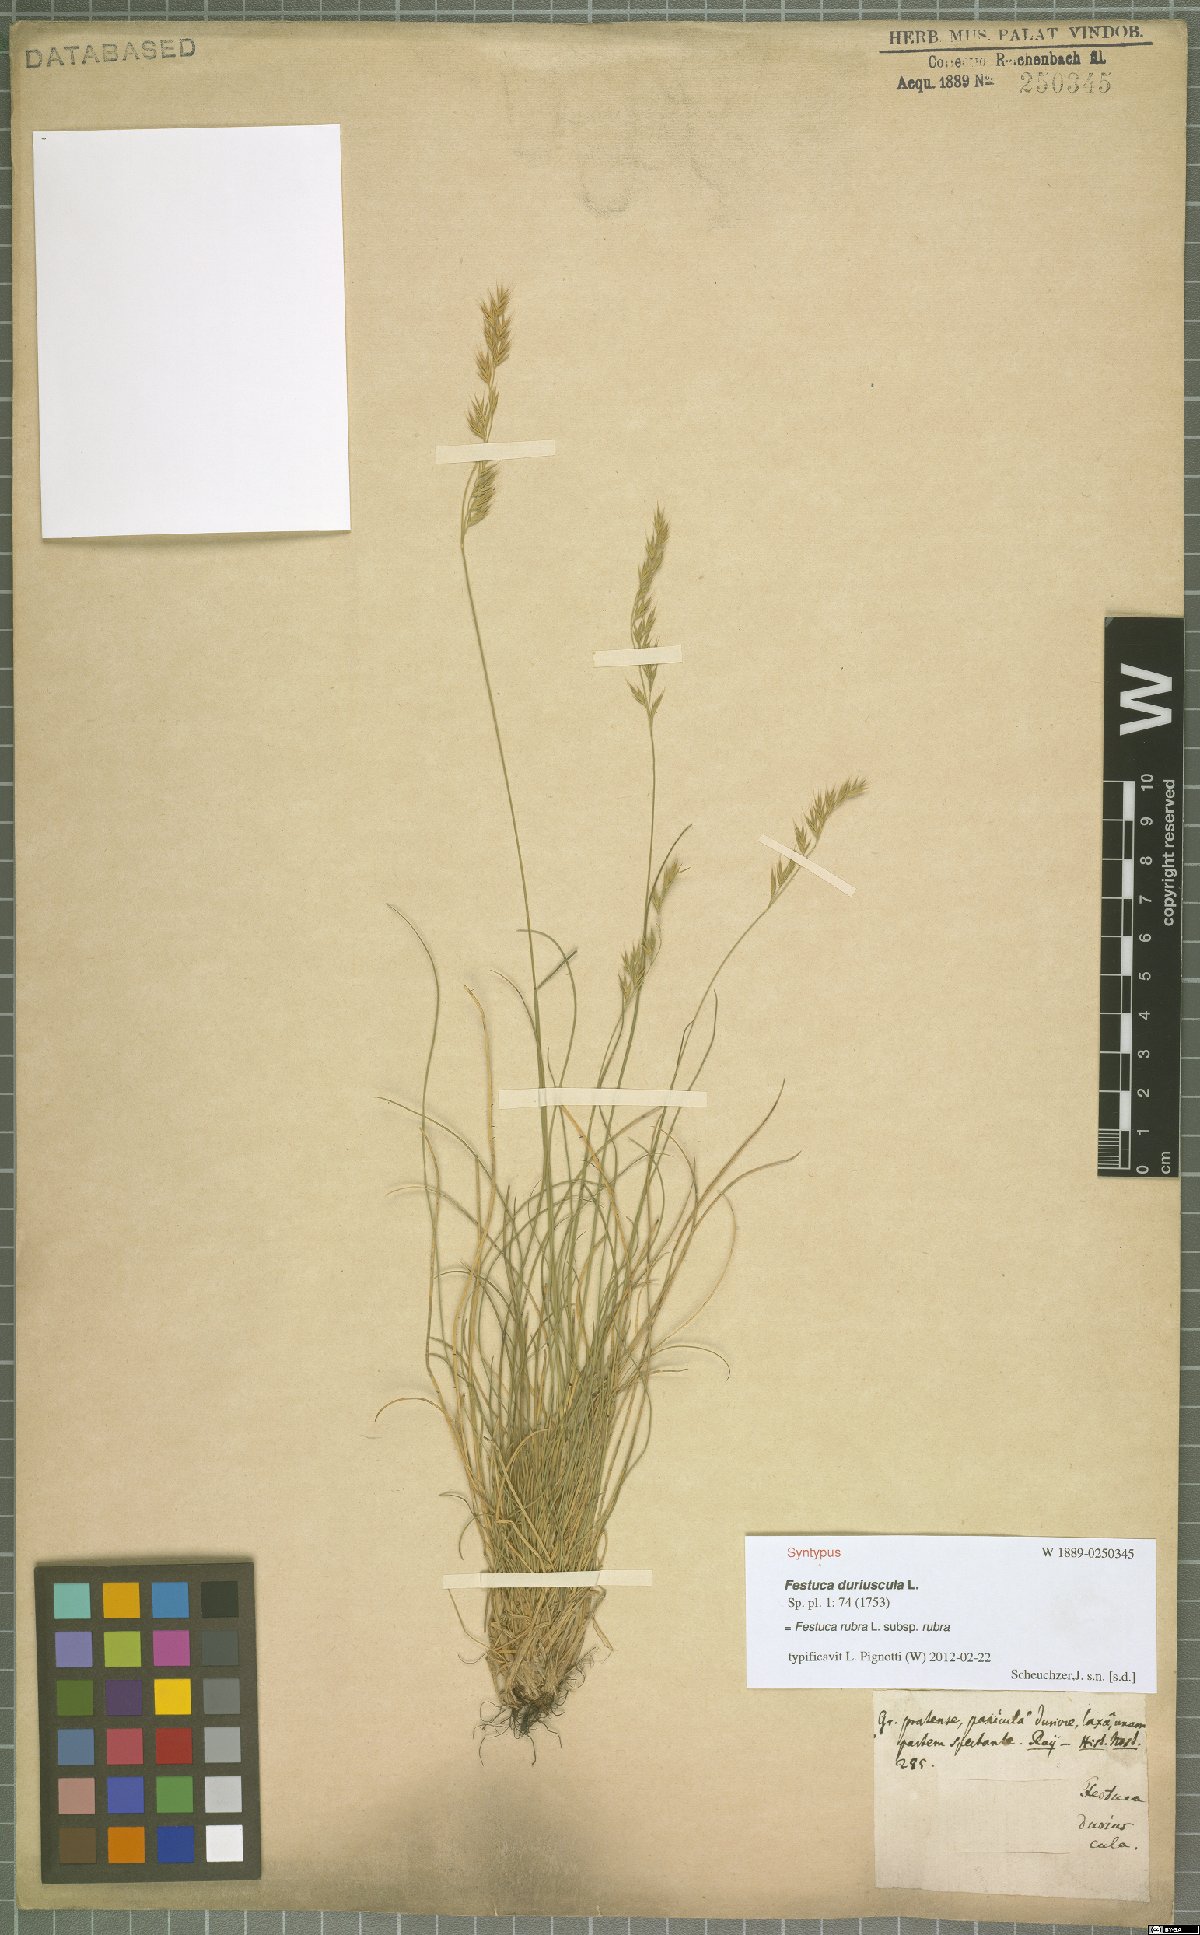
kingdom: Plantae
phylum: Tracheophyta
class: Liliopsida
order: Poales
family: Poaceae
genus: Festuca
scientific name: Festuca rubra
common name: Red fescue
